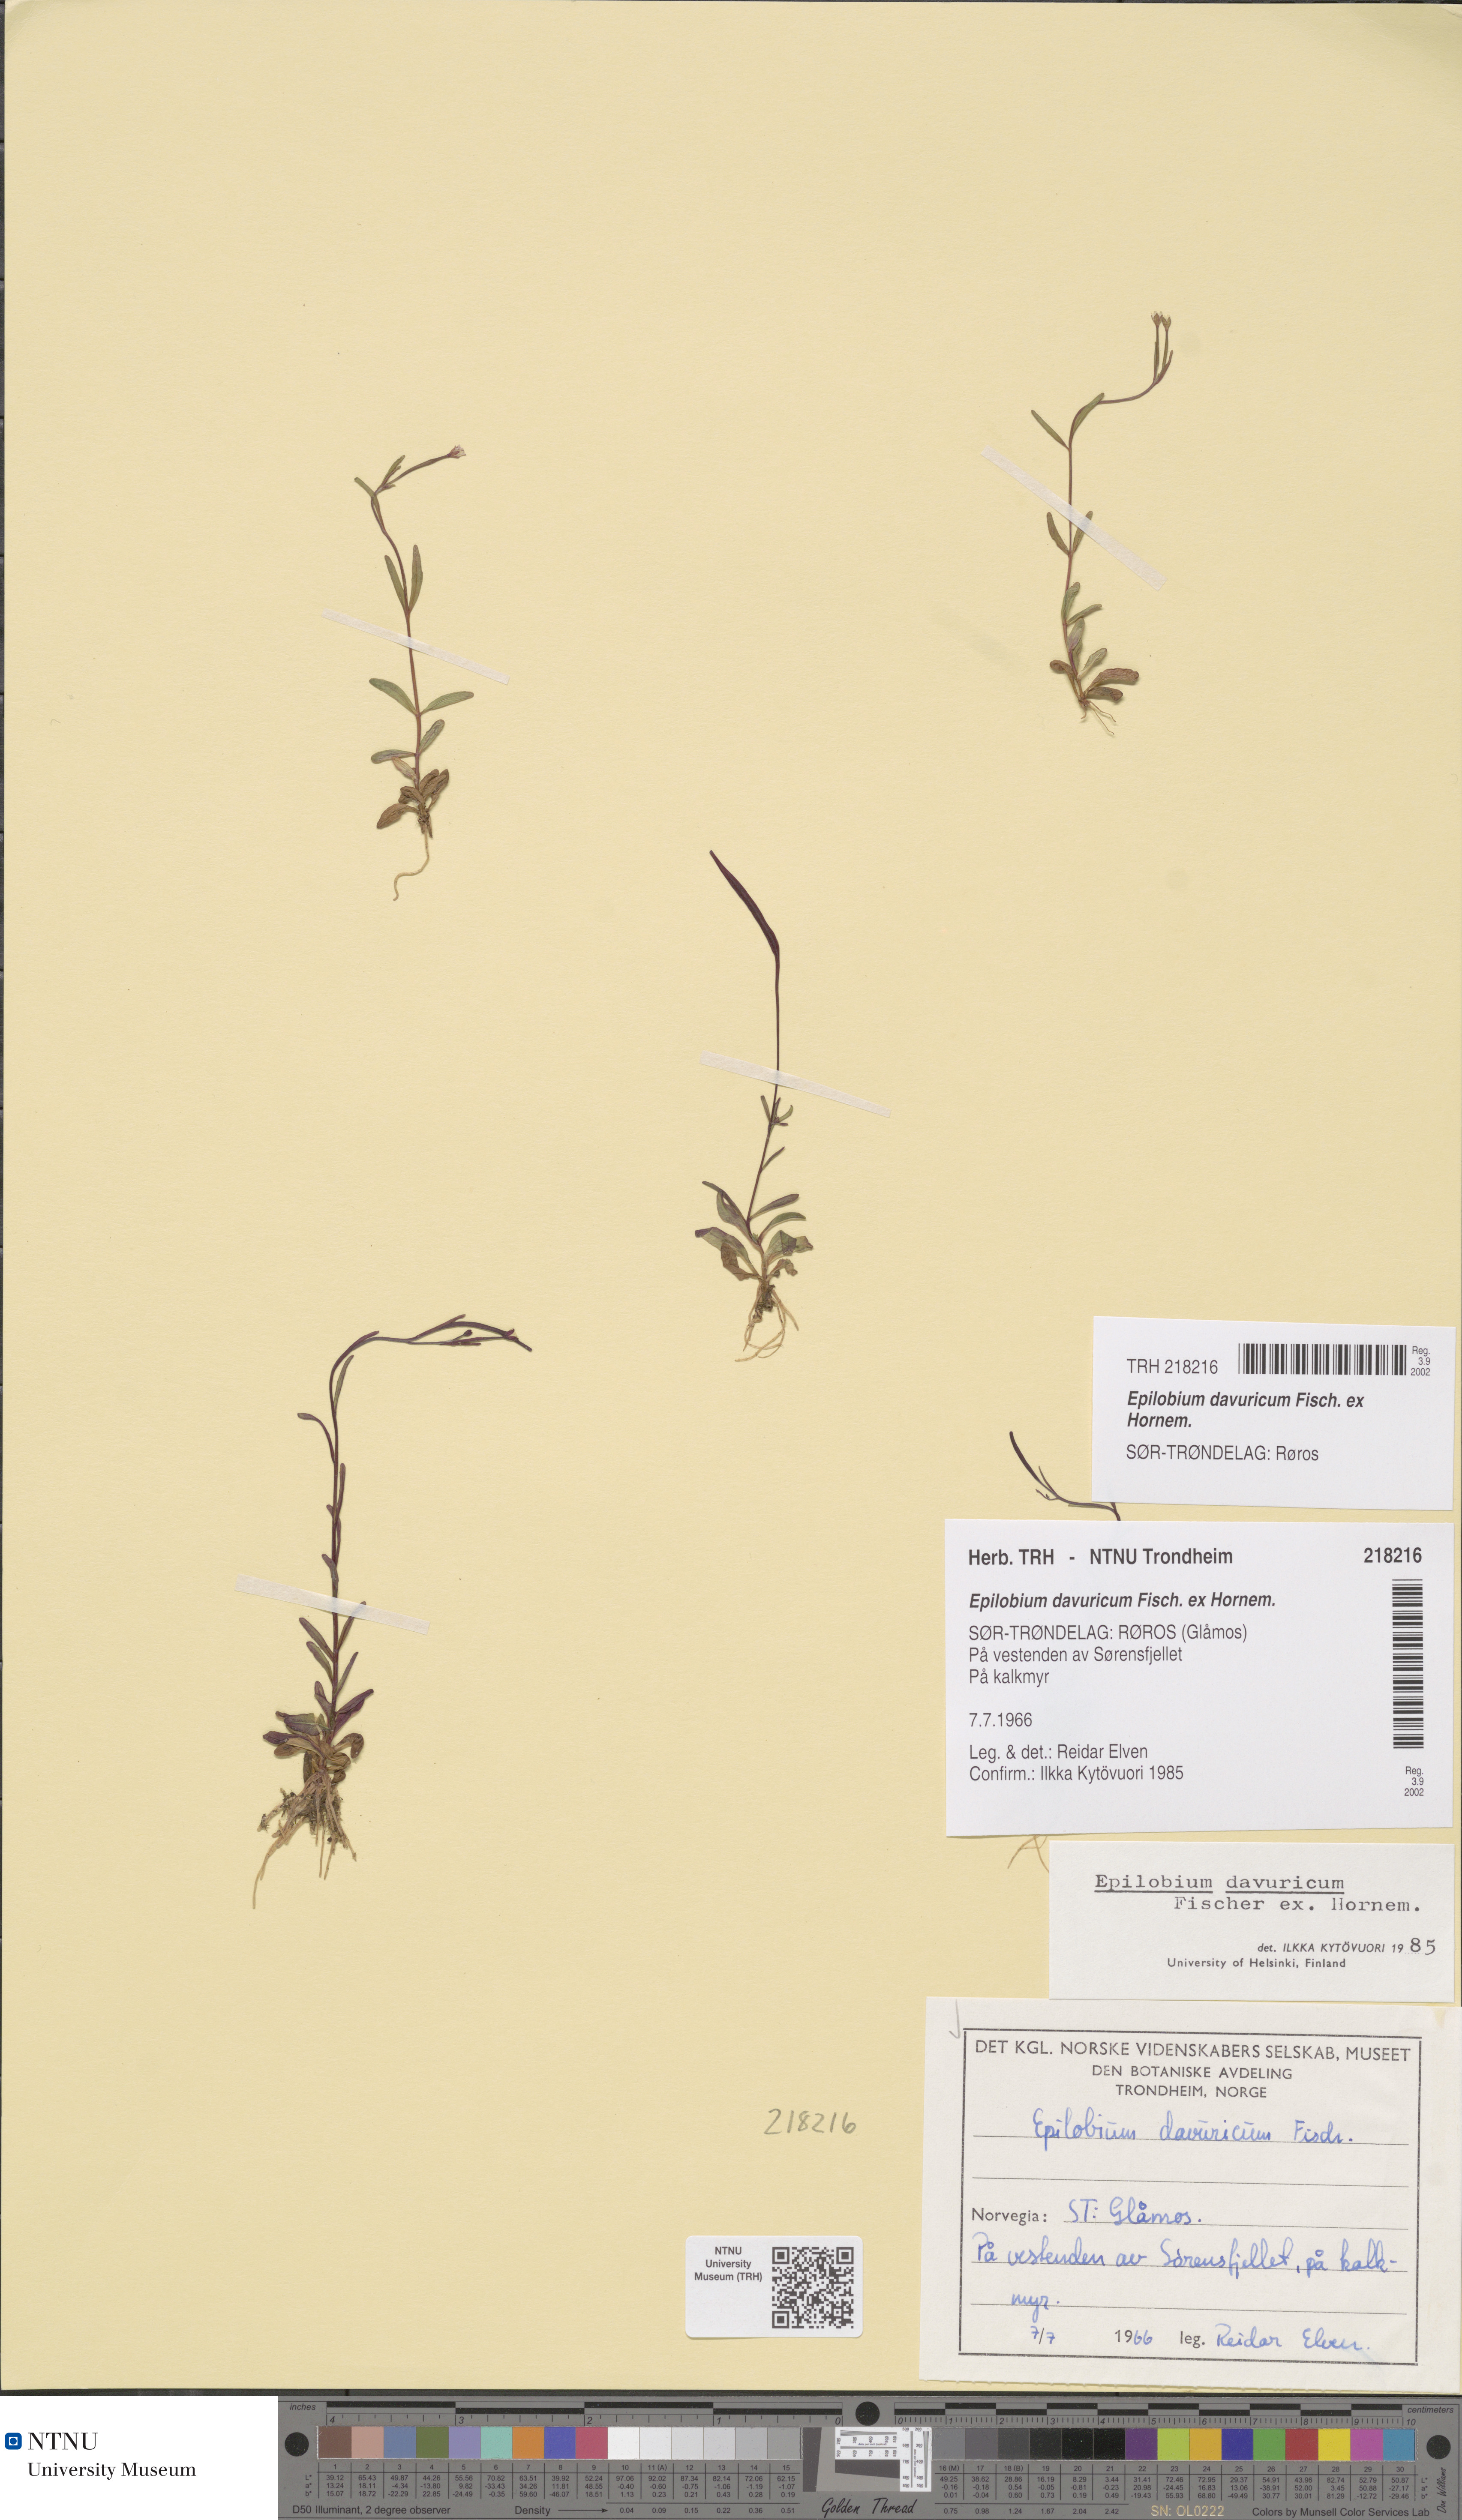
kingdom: Plantae
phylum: Tracheophyta
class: Magnoliopsida
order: Myrtales
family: Onagraceae
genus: Epilobium
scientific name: Epilobium davuricum
